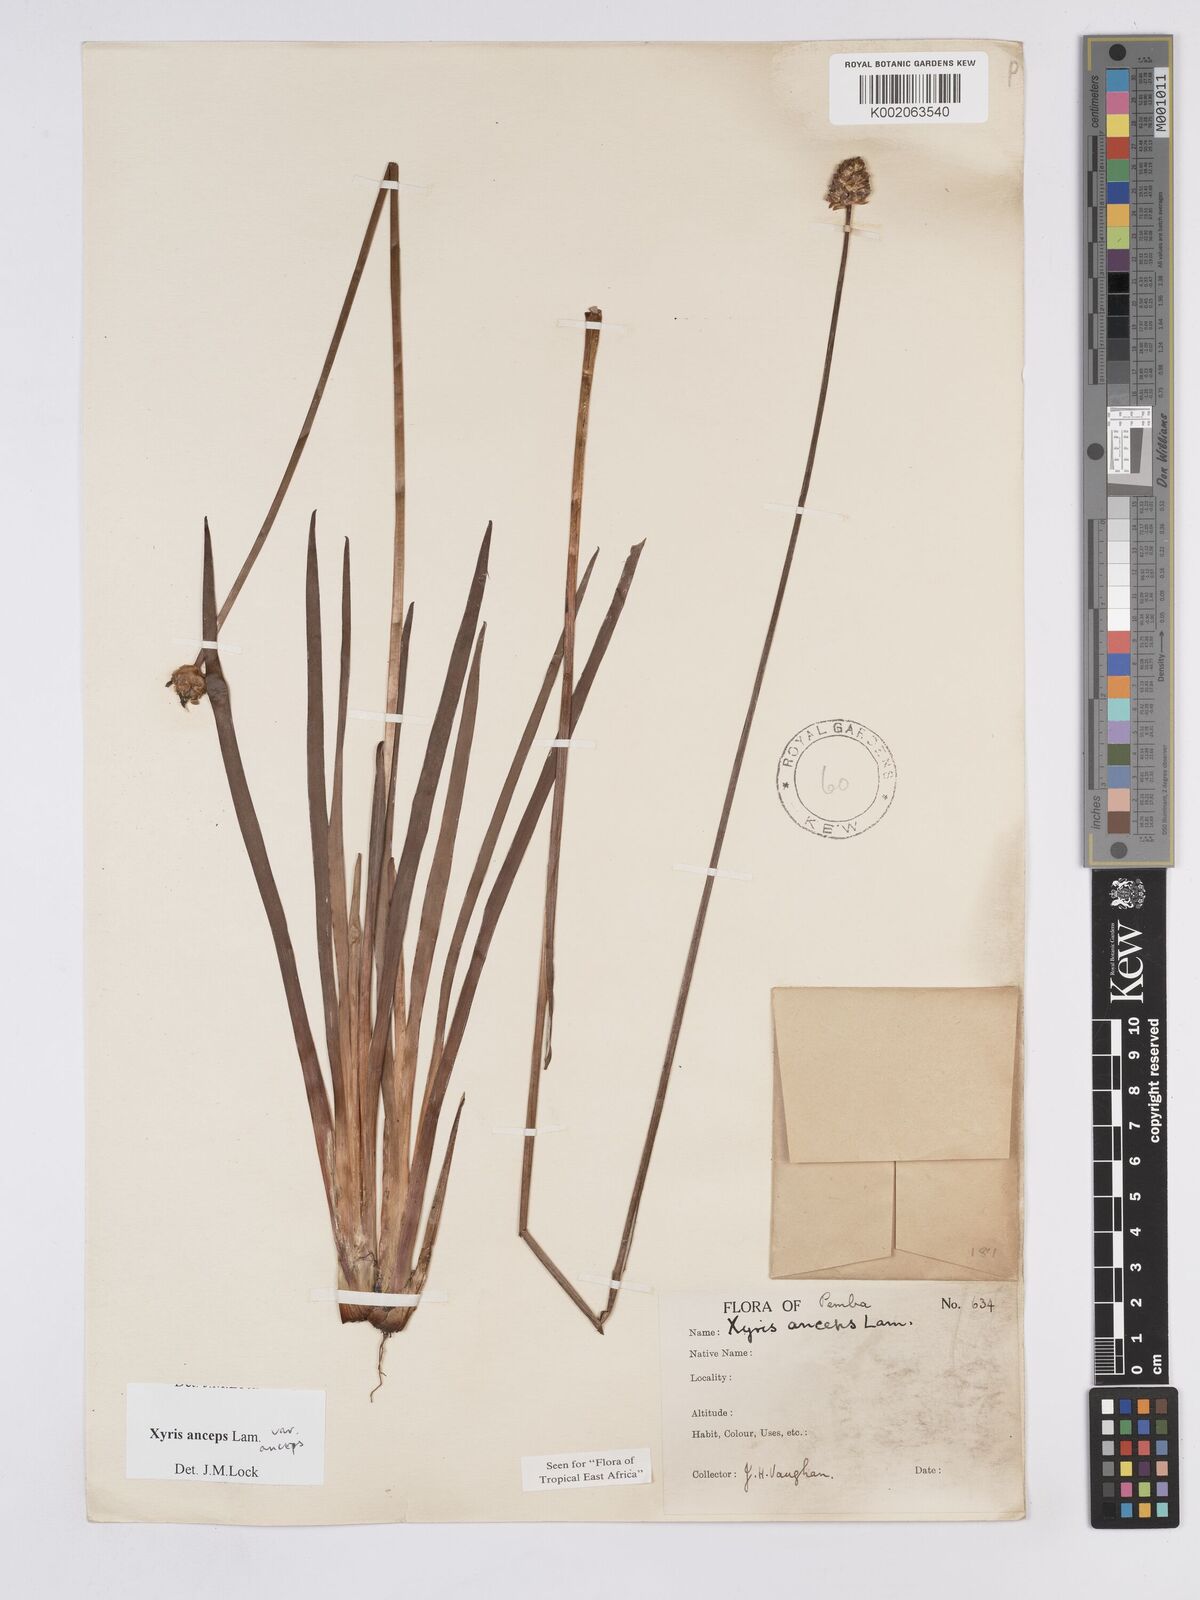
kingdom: Plantae
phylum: Tracheophyta
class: Liliopsida
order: Poales
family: Xyridaceae
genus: Xyris
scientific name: Xyris anceps
